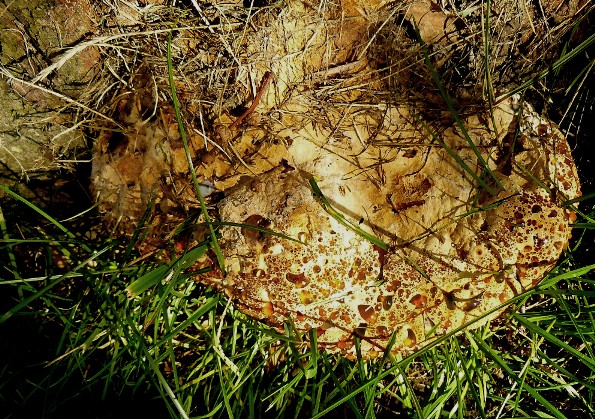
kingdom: Fungi
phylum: Basidiomycota
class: Agaricomycetes
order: Hymenochaetales
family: Hymenochaetaceae
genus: Pseudoinonotus
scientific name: Pseudoinonotus dryadeus
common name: ege-spejlporesvamp
